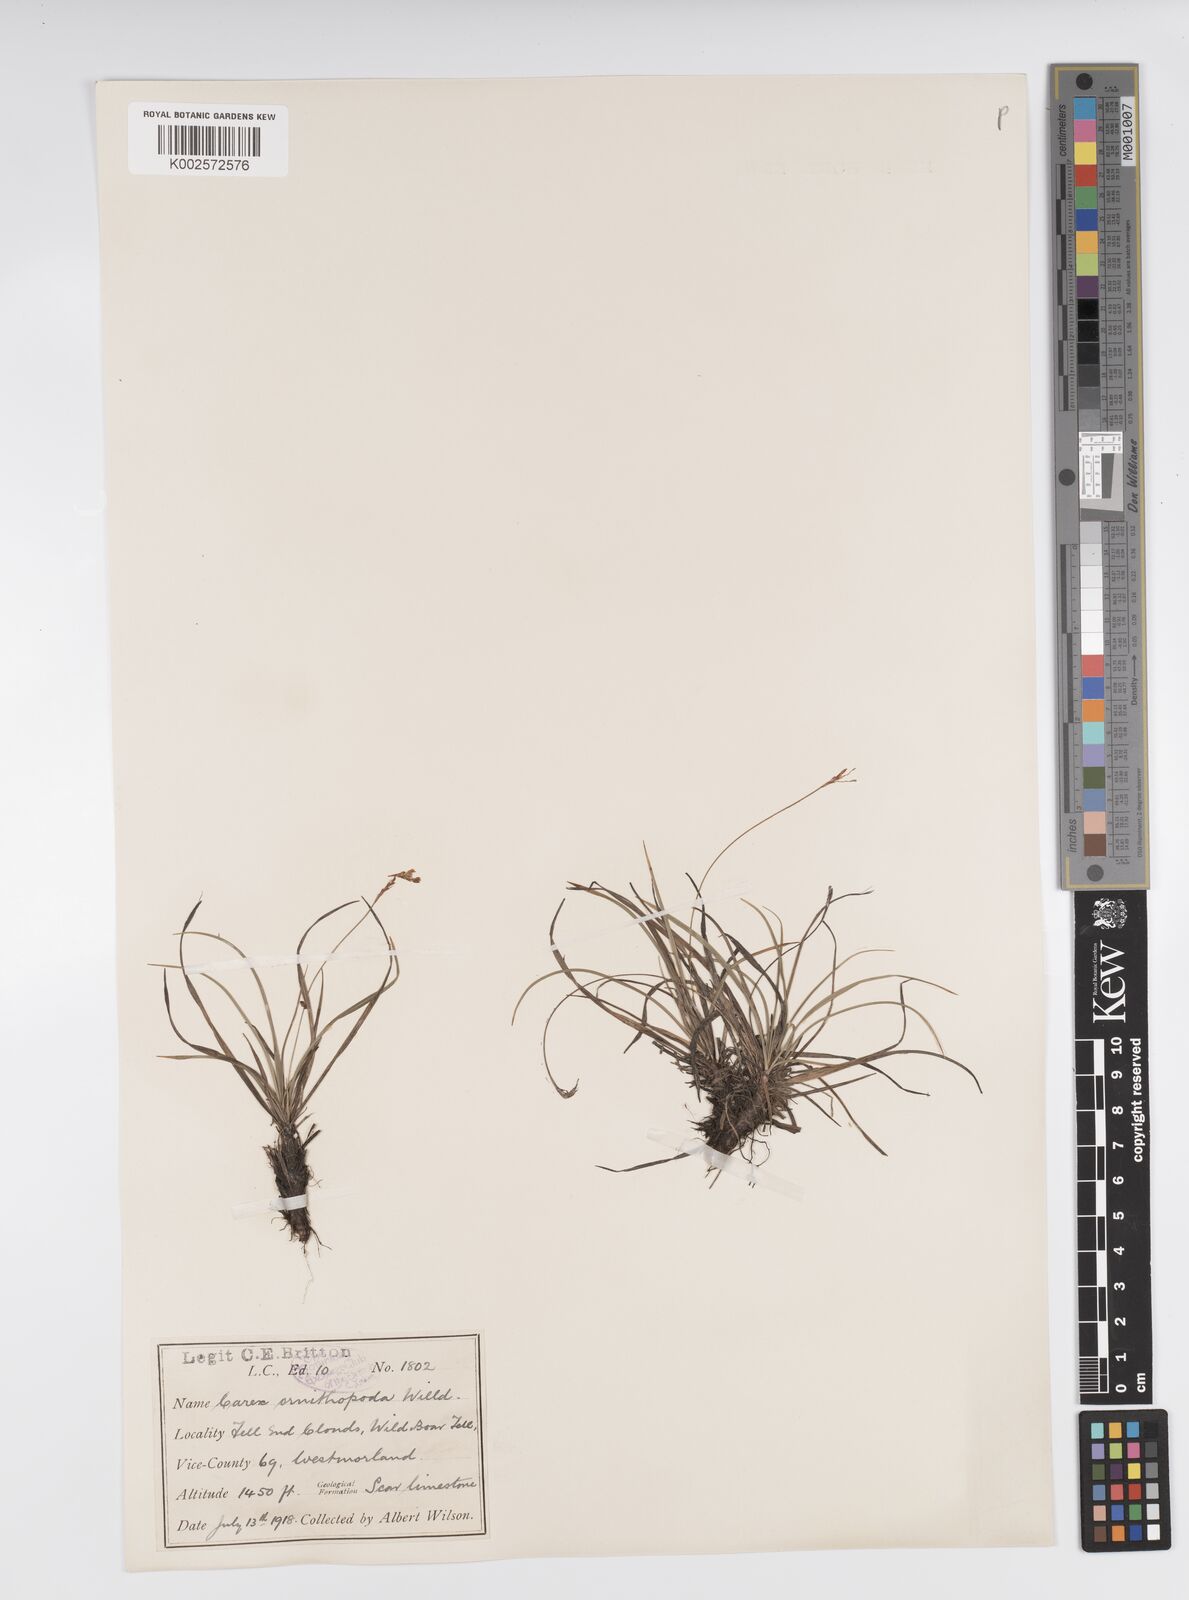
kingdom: Plantae
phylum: Tracheophyta
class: Liliopsida
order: Poales
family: Cyperaceae
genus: Carex
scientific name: Carex ornithopoda
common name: Bird's-foot sedge
